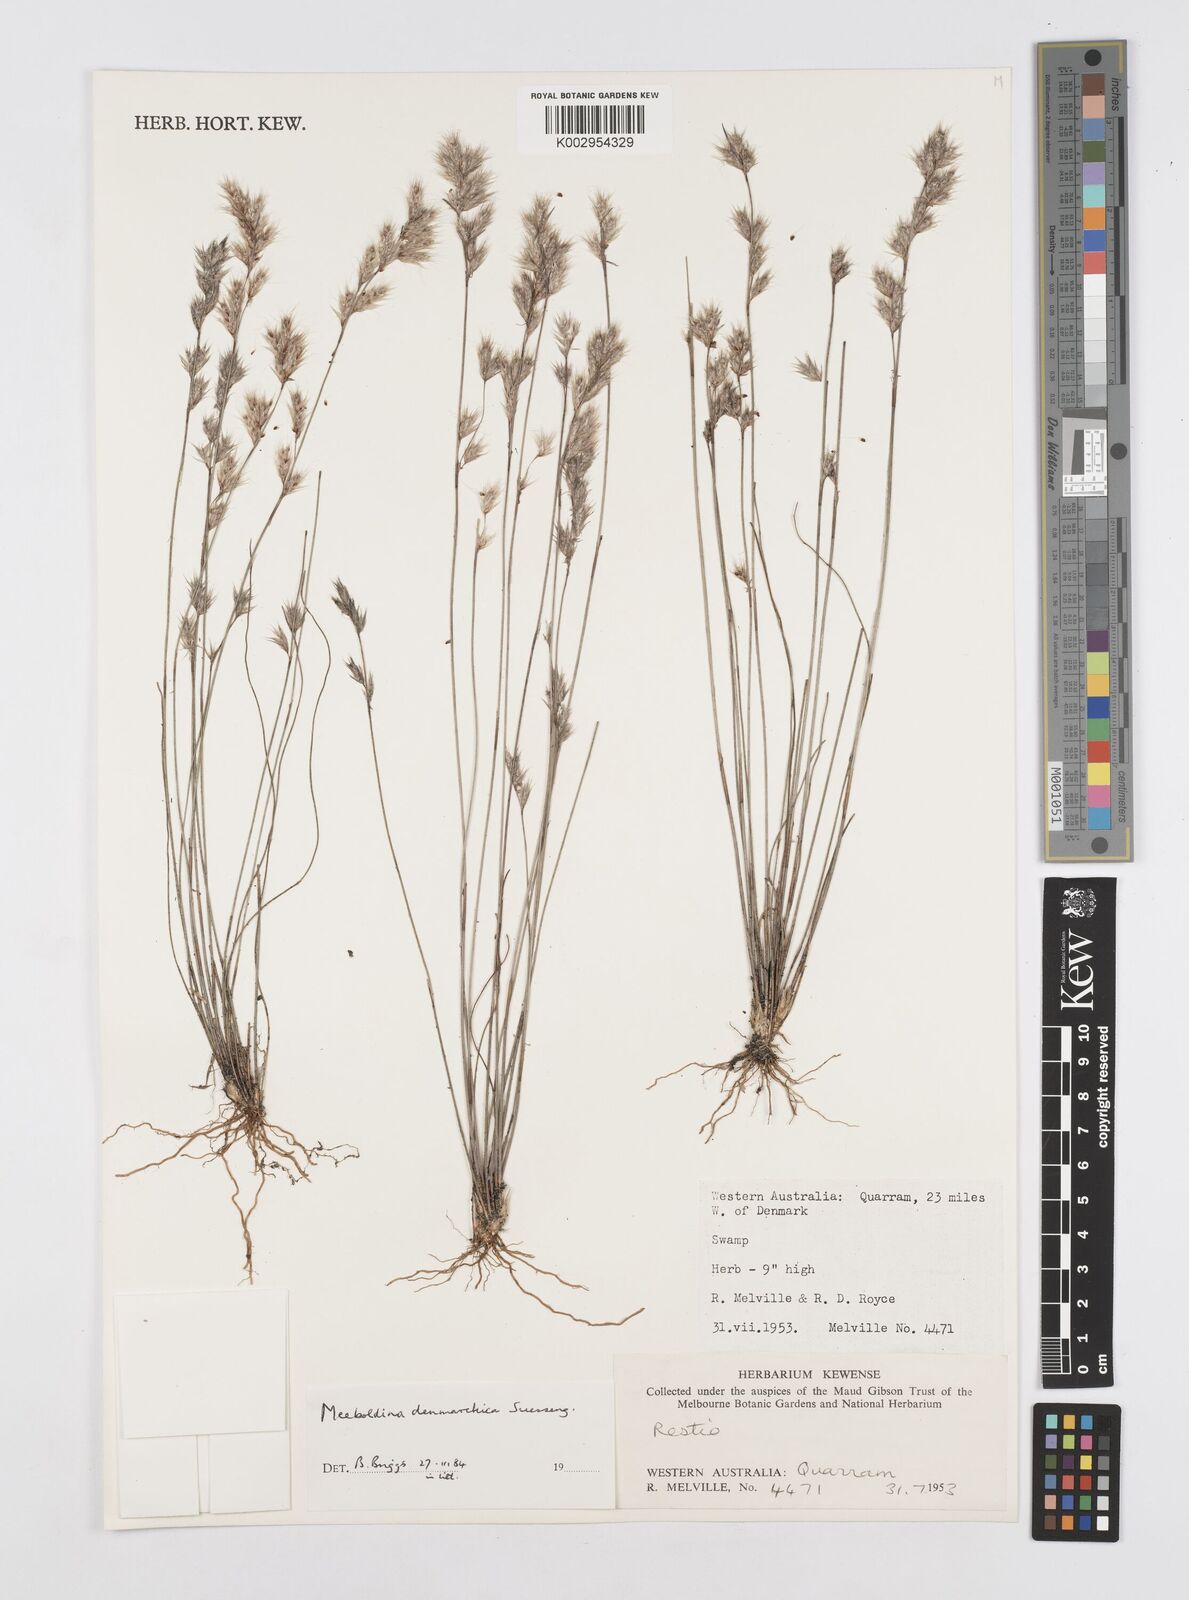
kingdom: Plantae
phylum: Tracheophyta
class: Liliopsida
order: Poales
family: Restionaceae
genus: Leptocarpus
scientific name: Leptocarpus denmarkicus
